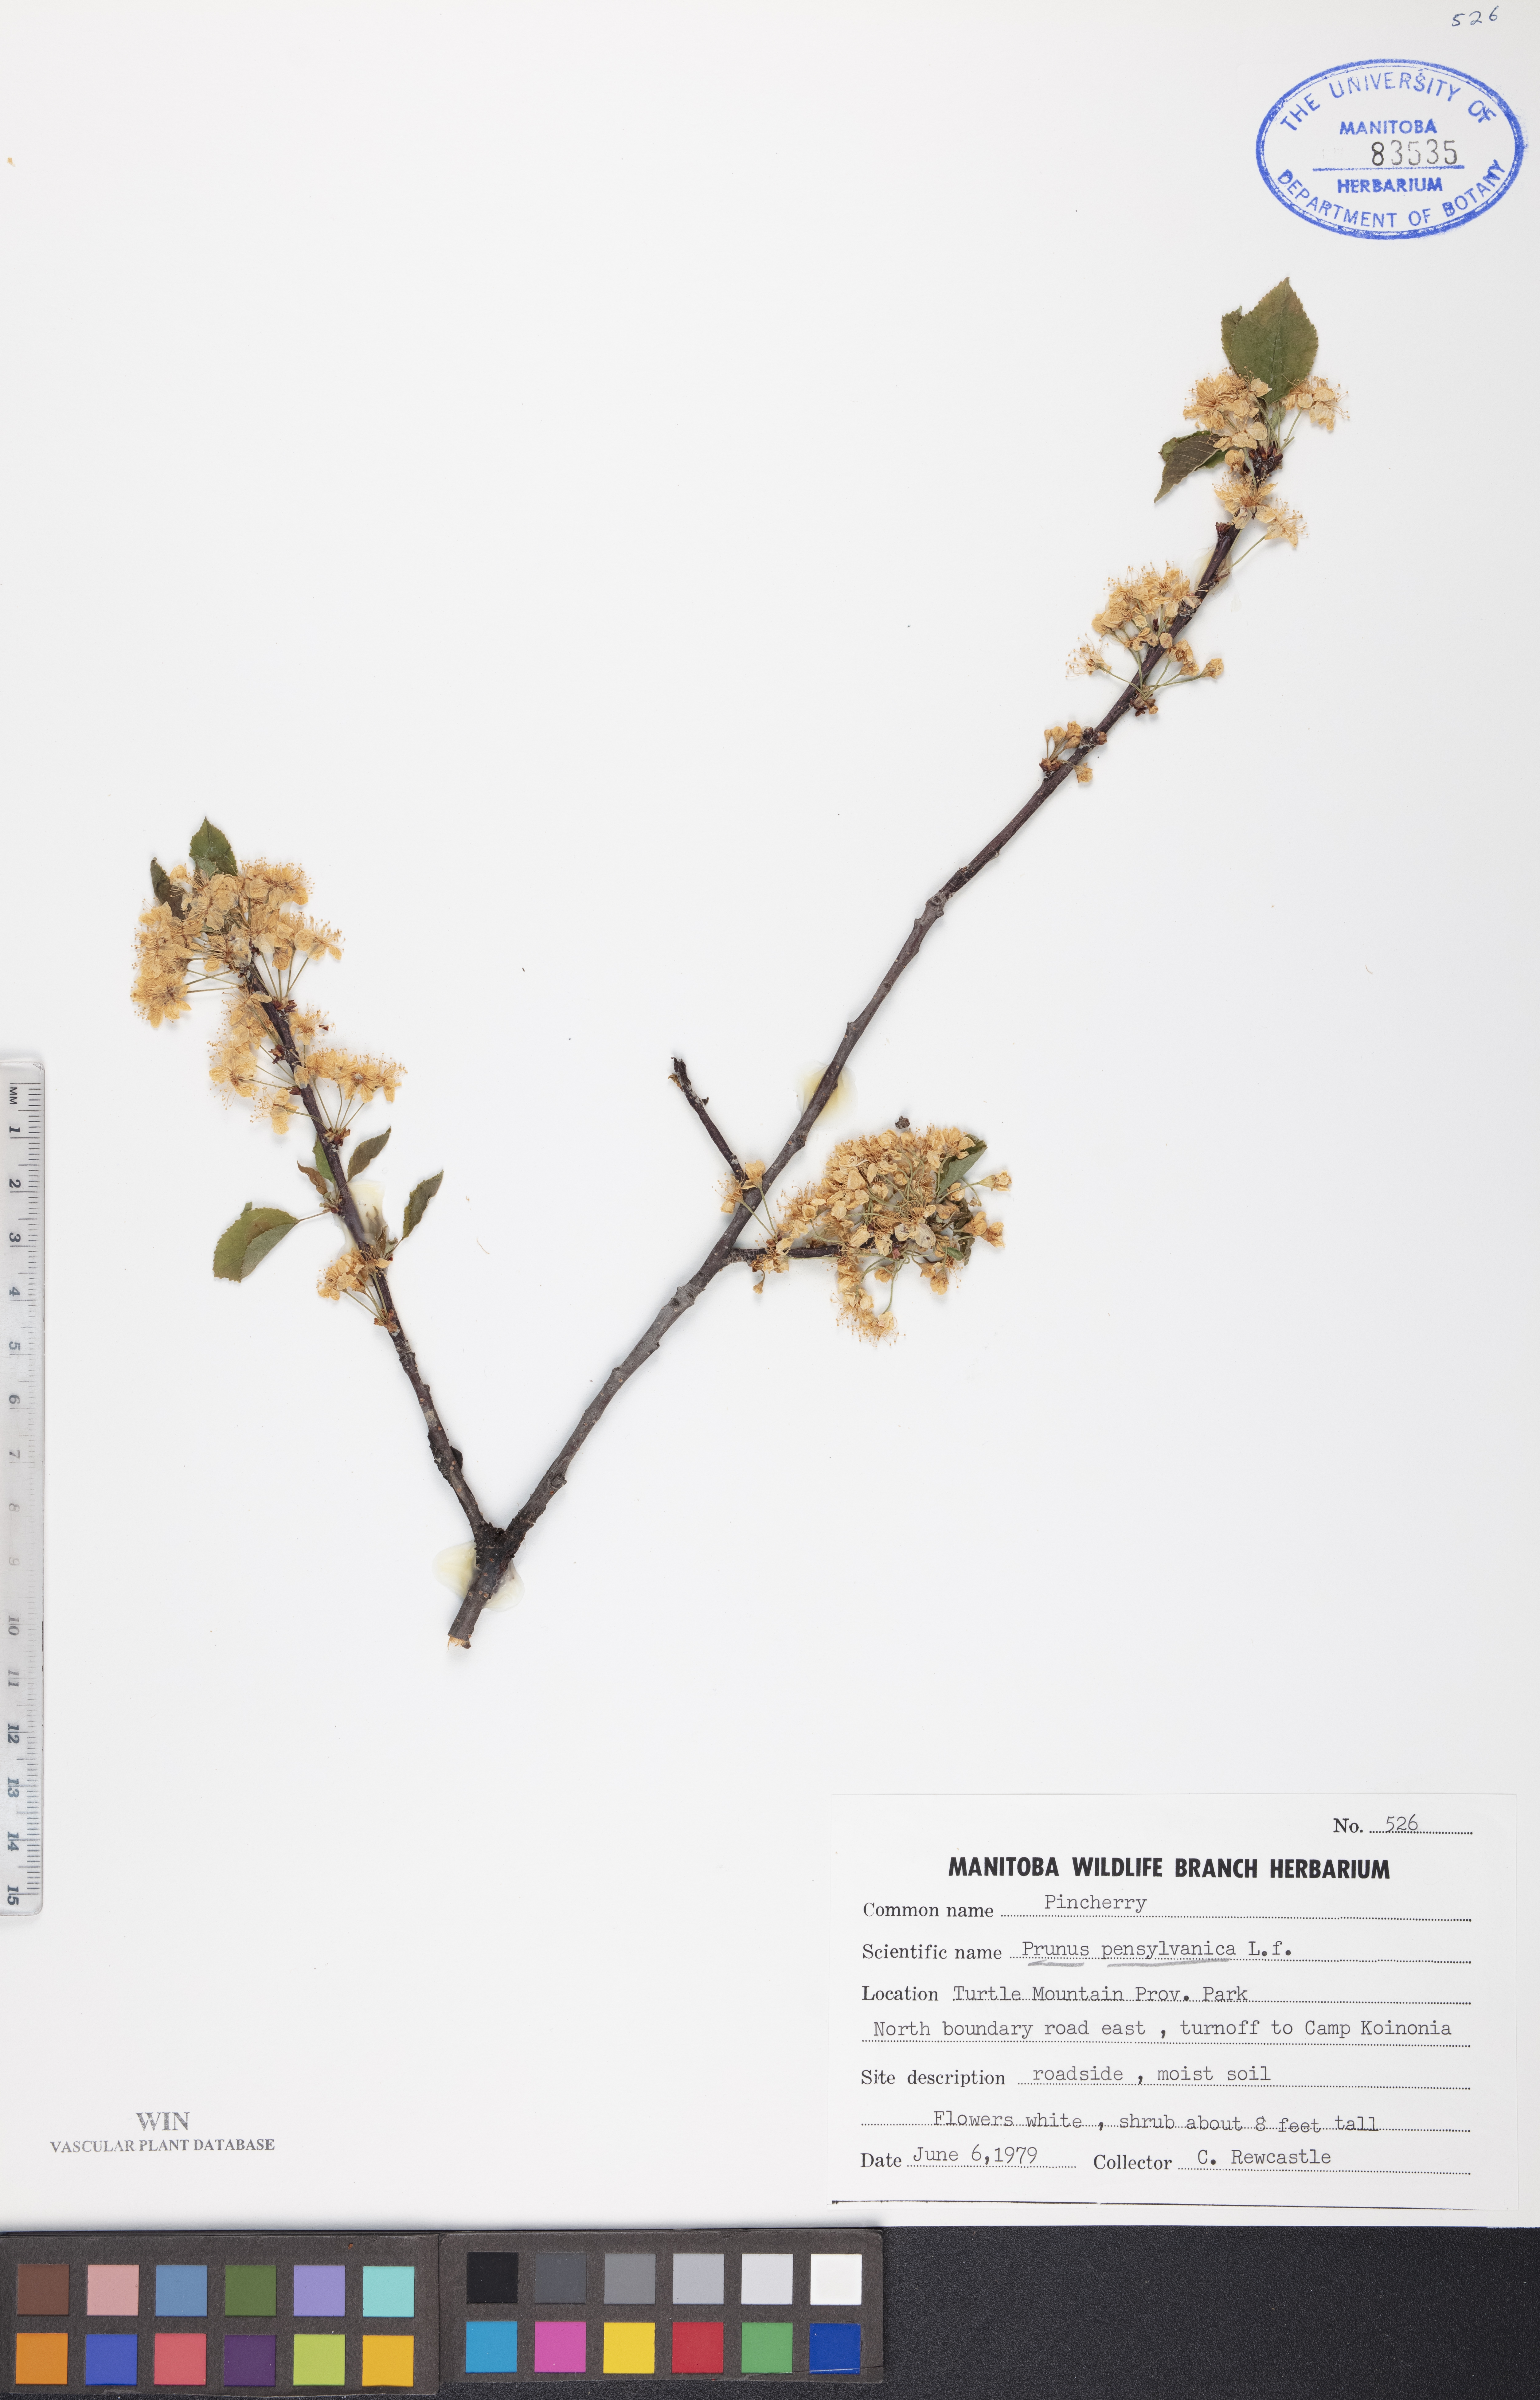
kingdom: Plantae
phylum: Tracheophyta
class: Magnoliopsida
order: Rosales
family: Rosaceae
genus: Prunus
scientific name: Prunus pensylvanica
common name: Pin cherry
